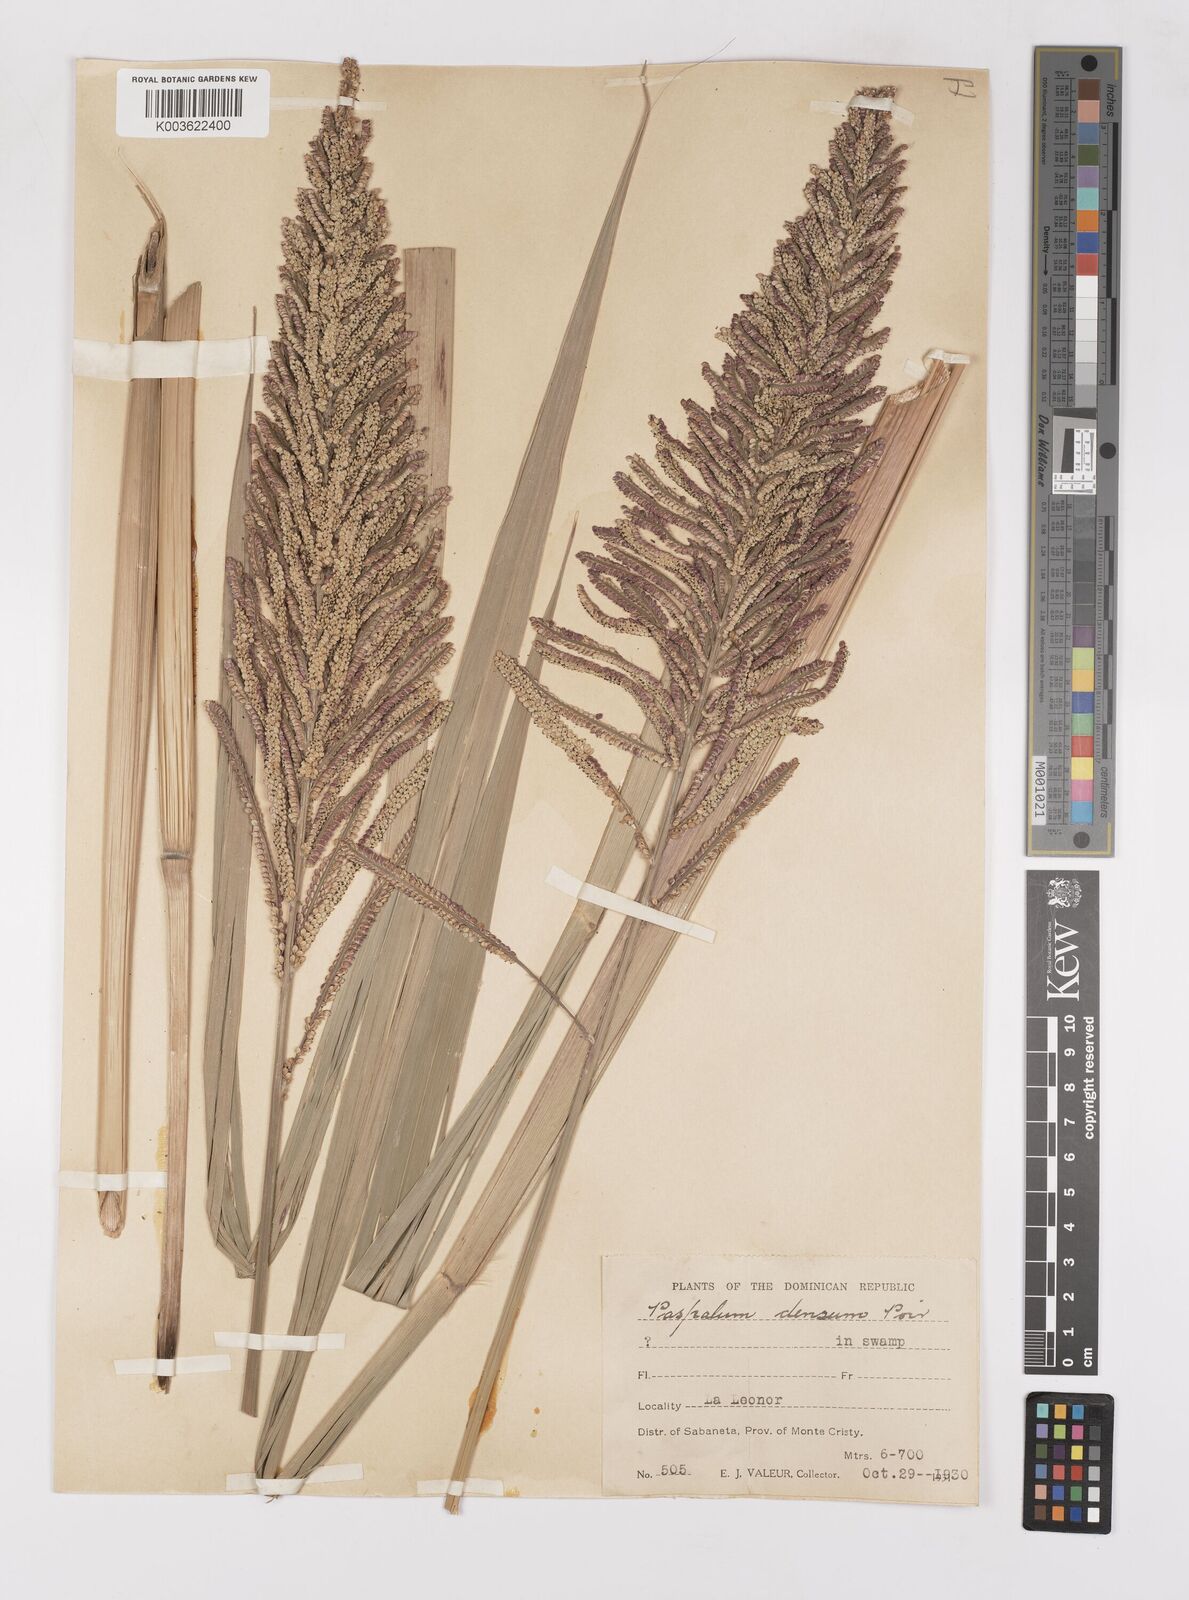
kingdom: Plantae
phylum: Tracheophyta
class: Liliopsida
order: Poales
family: Poaceae
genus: Paspalum
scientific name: Paspalum densum
